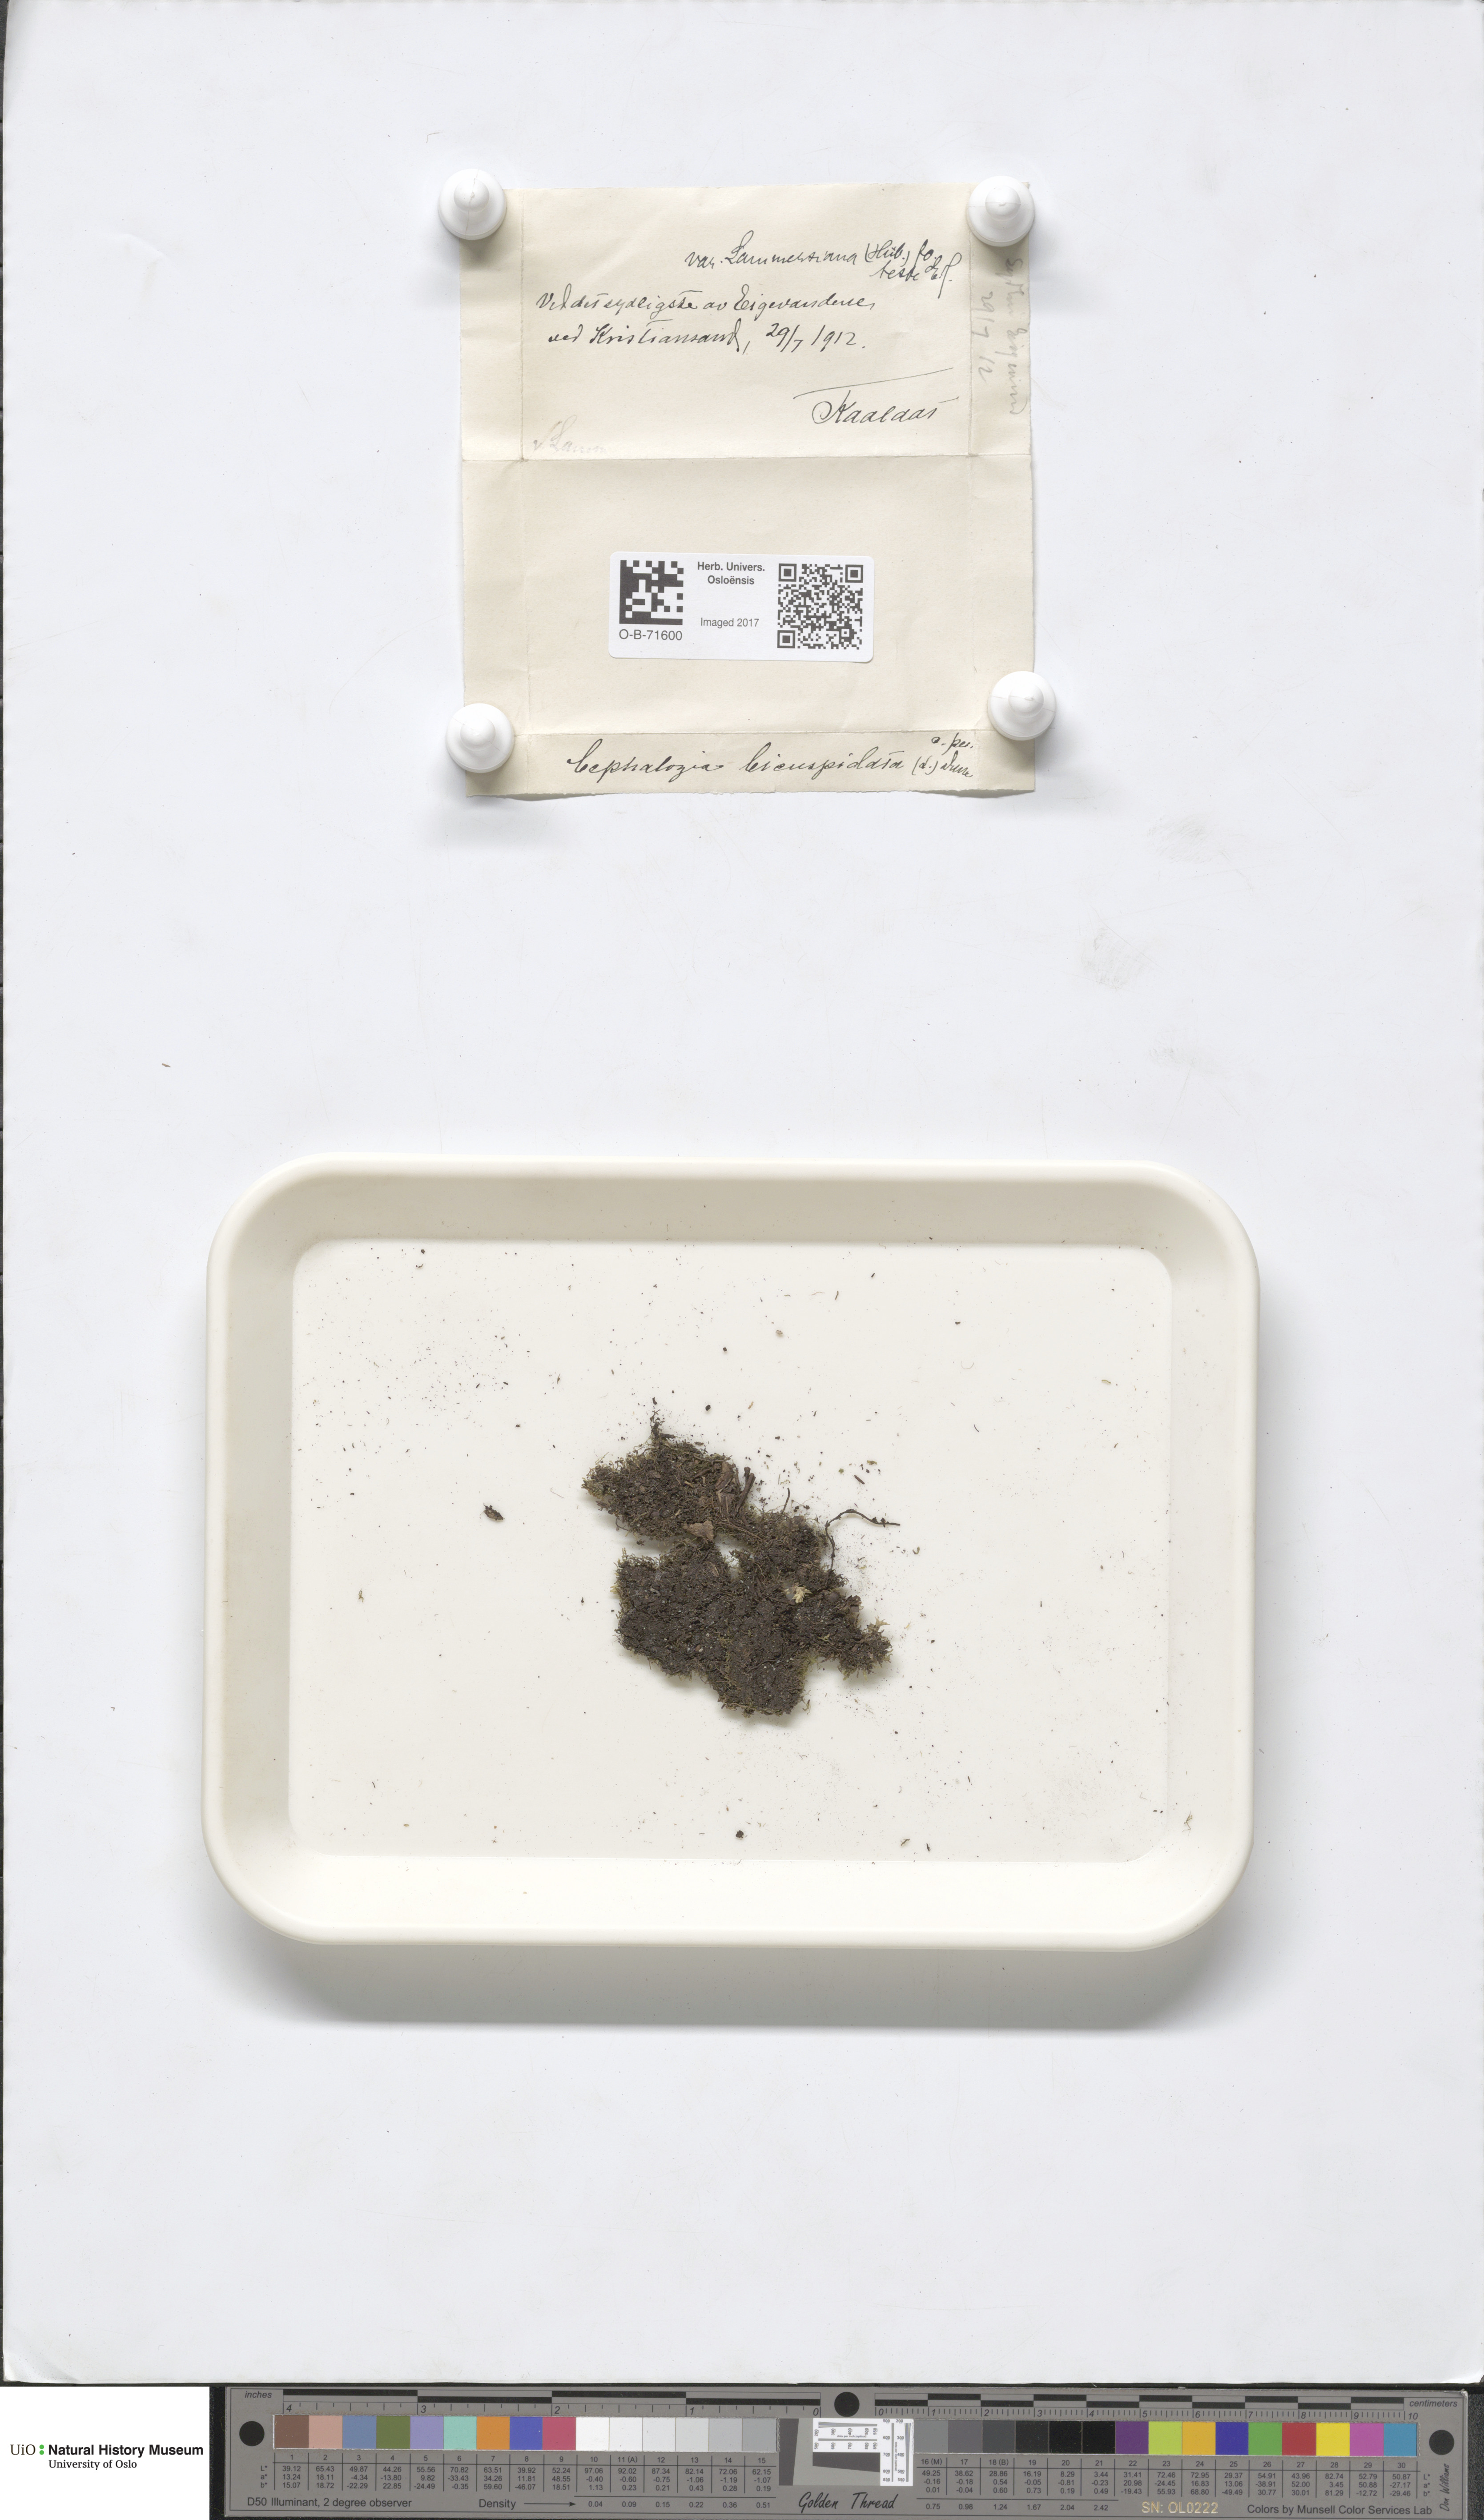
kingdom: Plantae
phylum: Marchantiophyta
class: Jungermanniopsida
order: Jungermanniales
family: Cephaloziaceae
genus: Cephalozia
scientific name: Cephalozia bicuspidata
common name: Two-horned pincerwort
